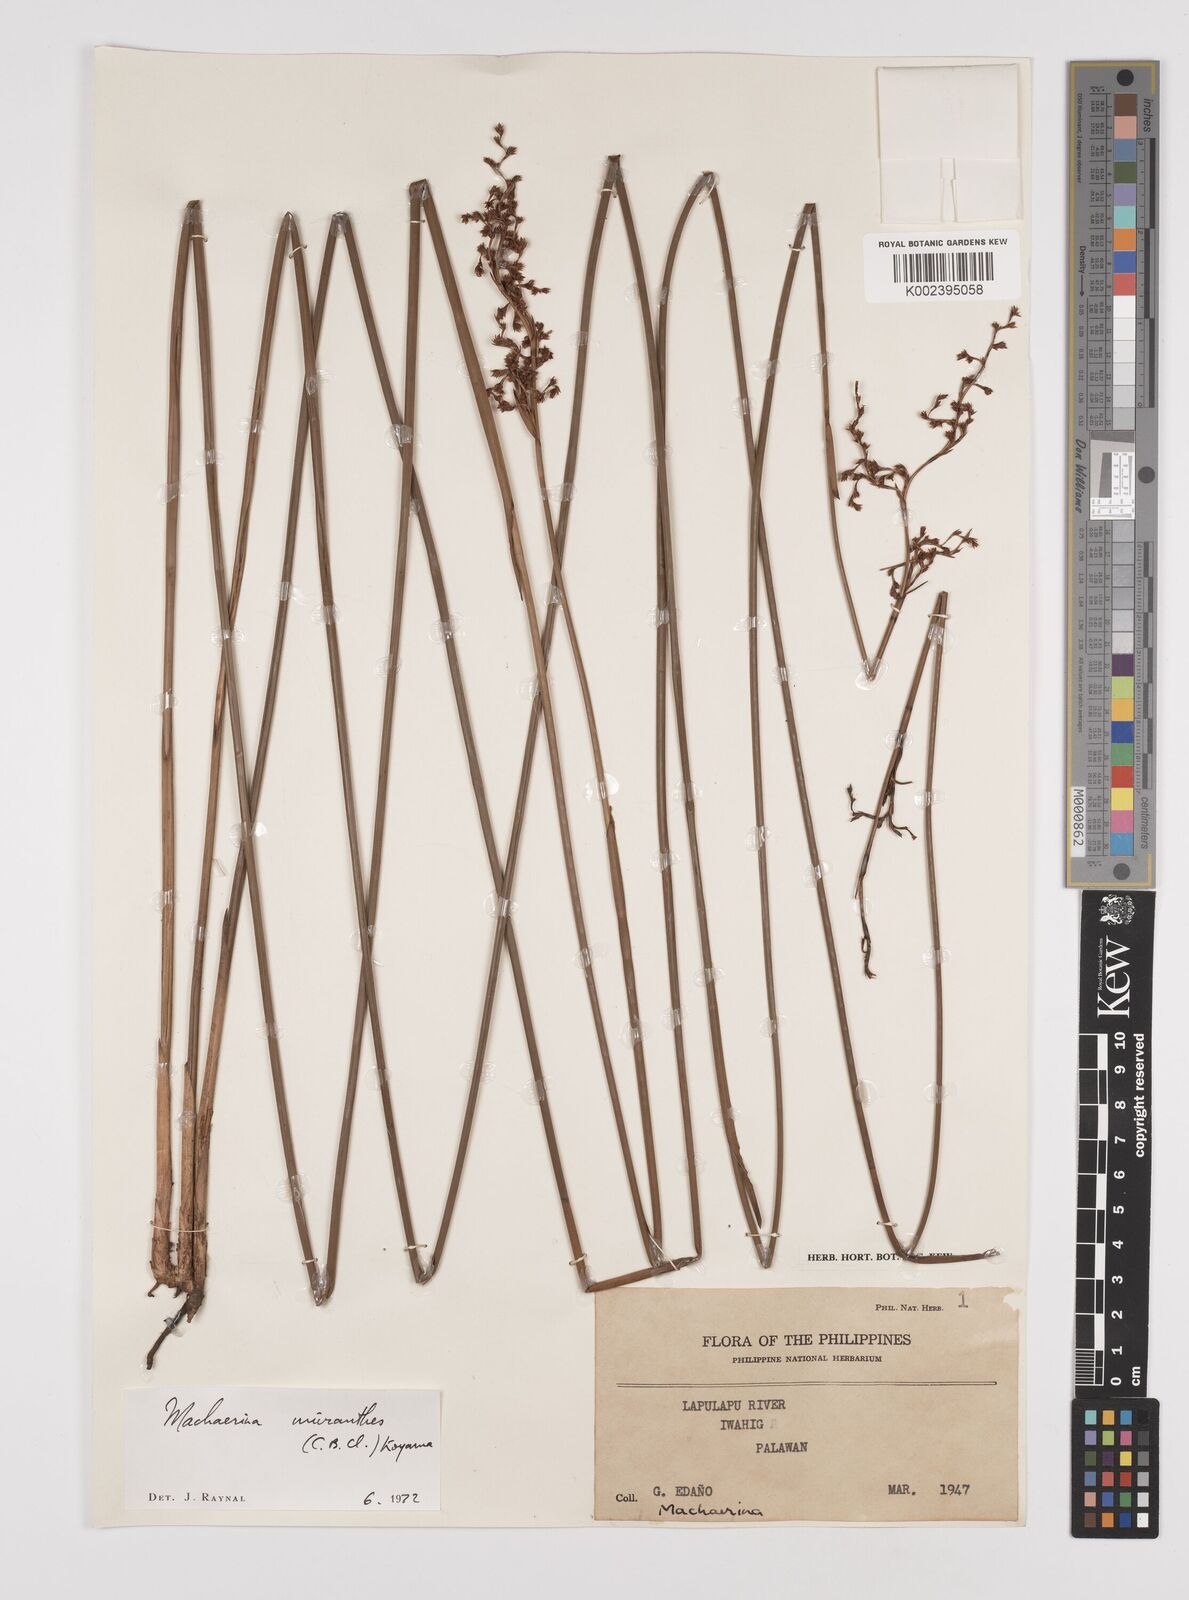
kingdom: Plantae
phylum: Tracheophyta
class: Liliopsida
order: Poales
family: Cyperaceae
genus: Machaerina
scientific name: Machaerina disticha
